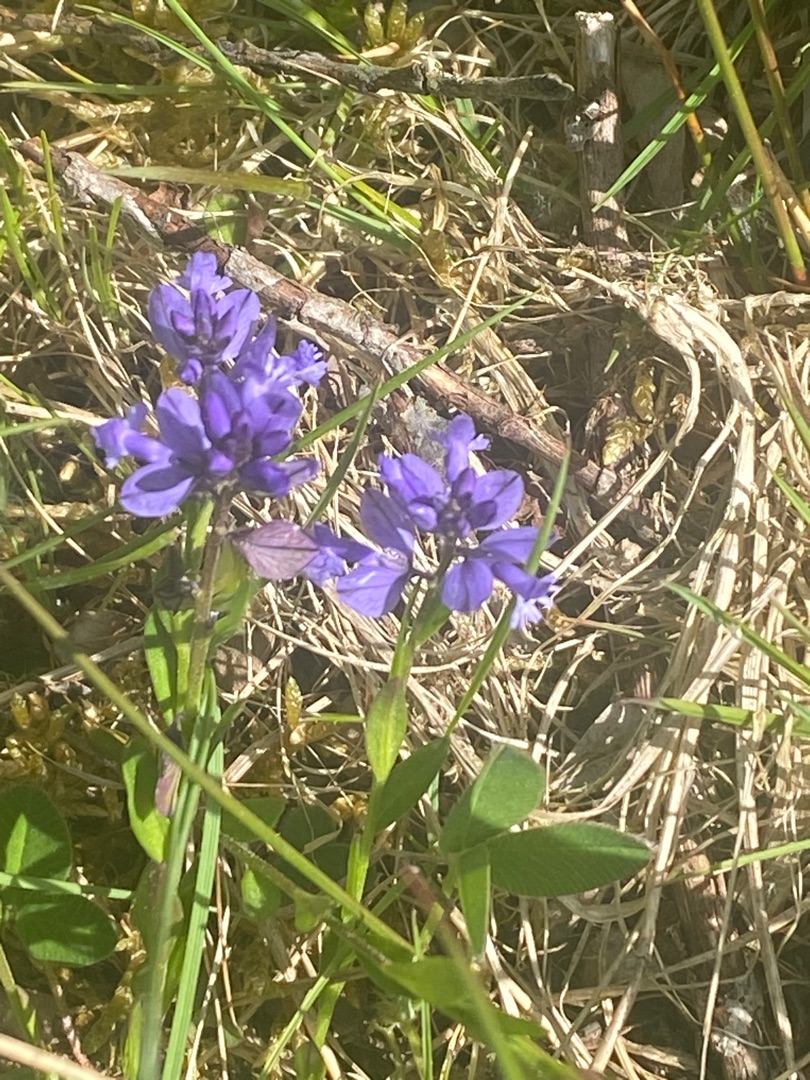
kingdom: Plantae
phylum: Tracheophyta
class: Magnoliopsida
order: Fabales
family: Polygalaceae
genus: Polygala
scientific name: Polygala vulgaris
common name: Almindelig mælkeurt
